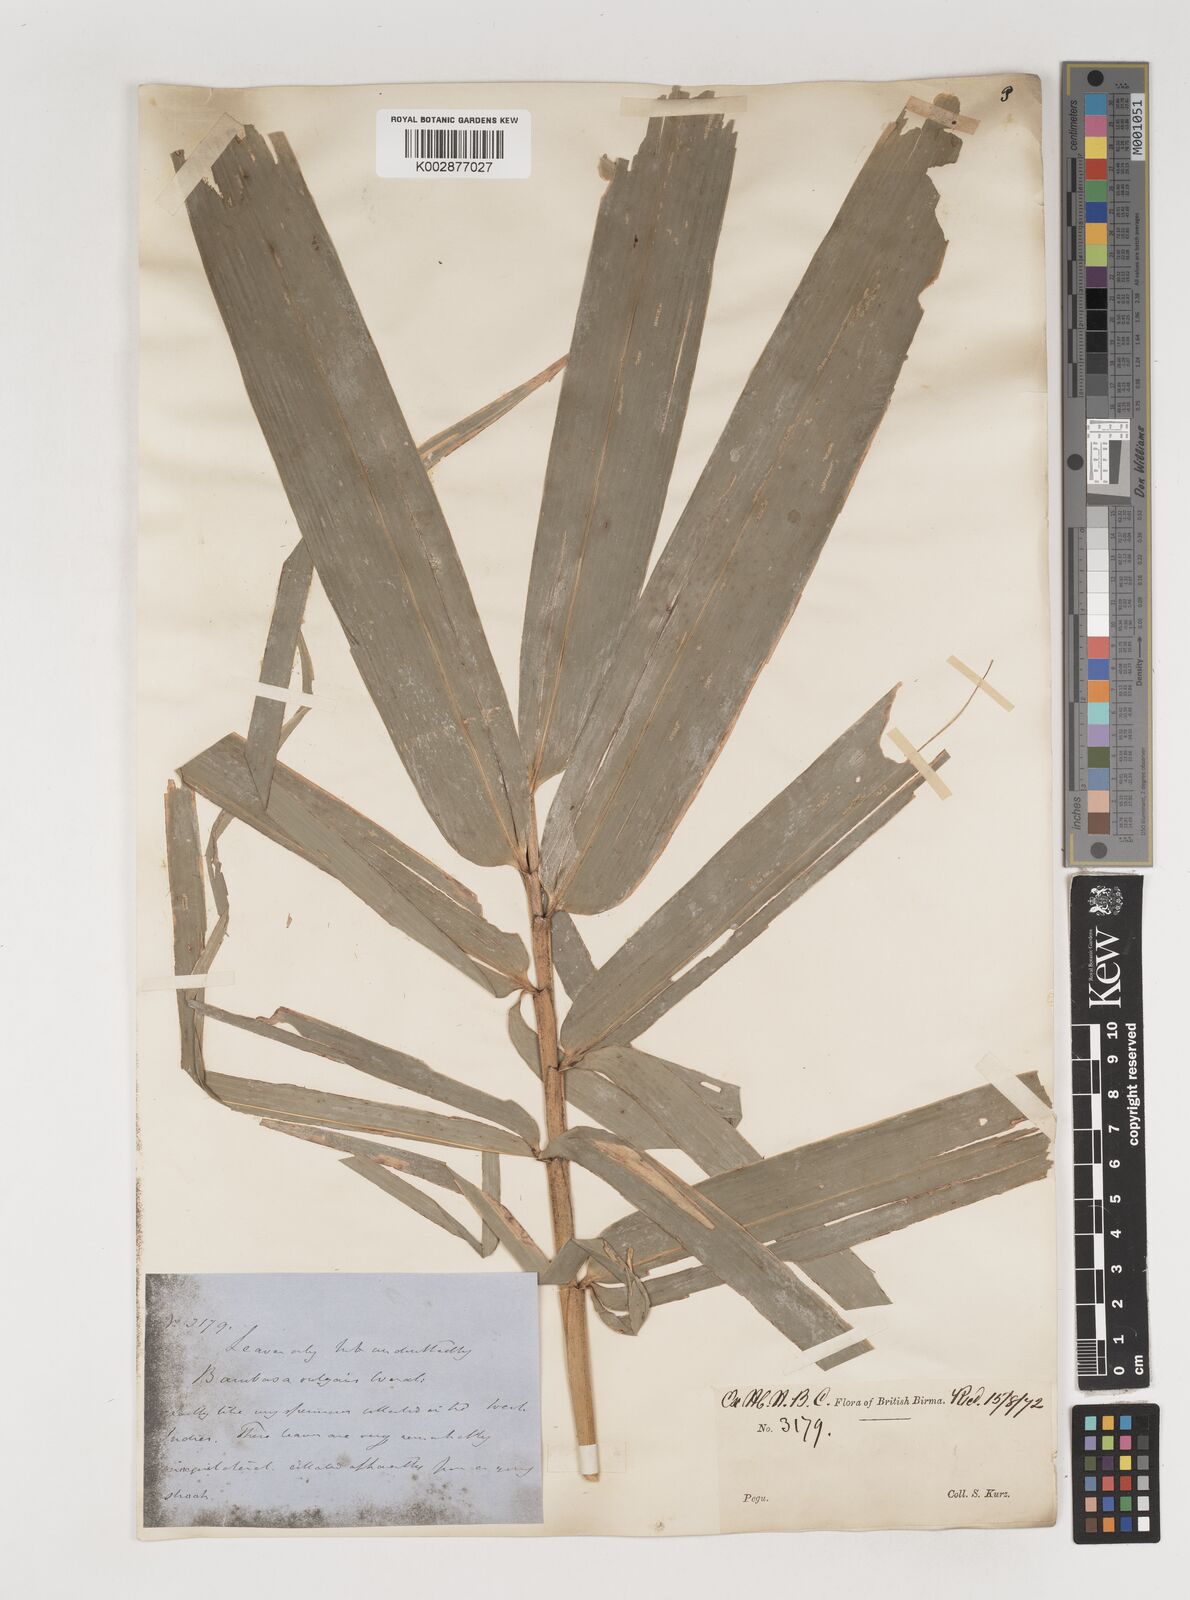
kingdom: Plantae
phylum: Tracheophyta
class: Liliopsida
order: Poales
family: Poaceae
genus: Bambusa
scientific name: Bambusa vulgaris
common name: Common bamboo
